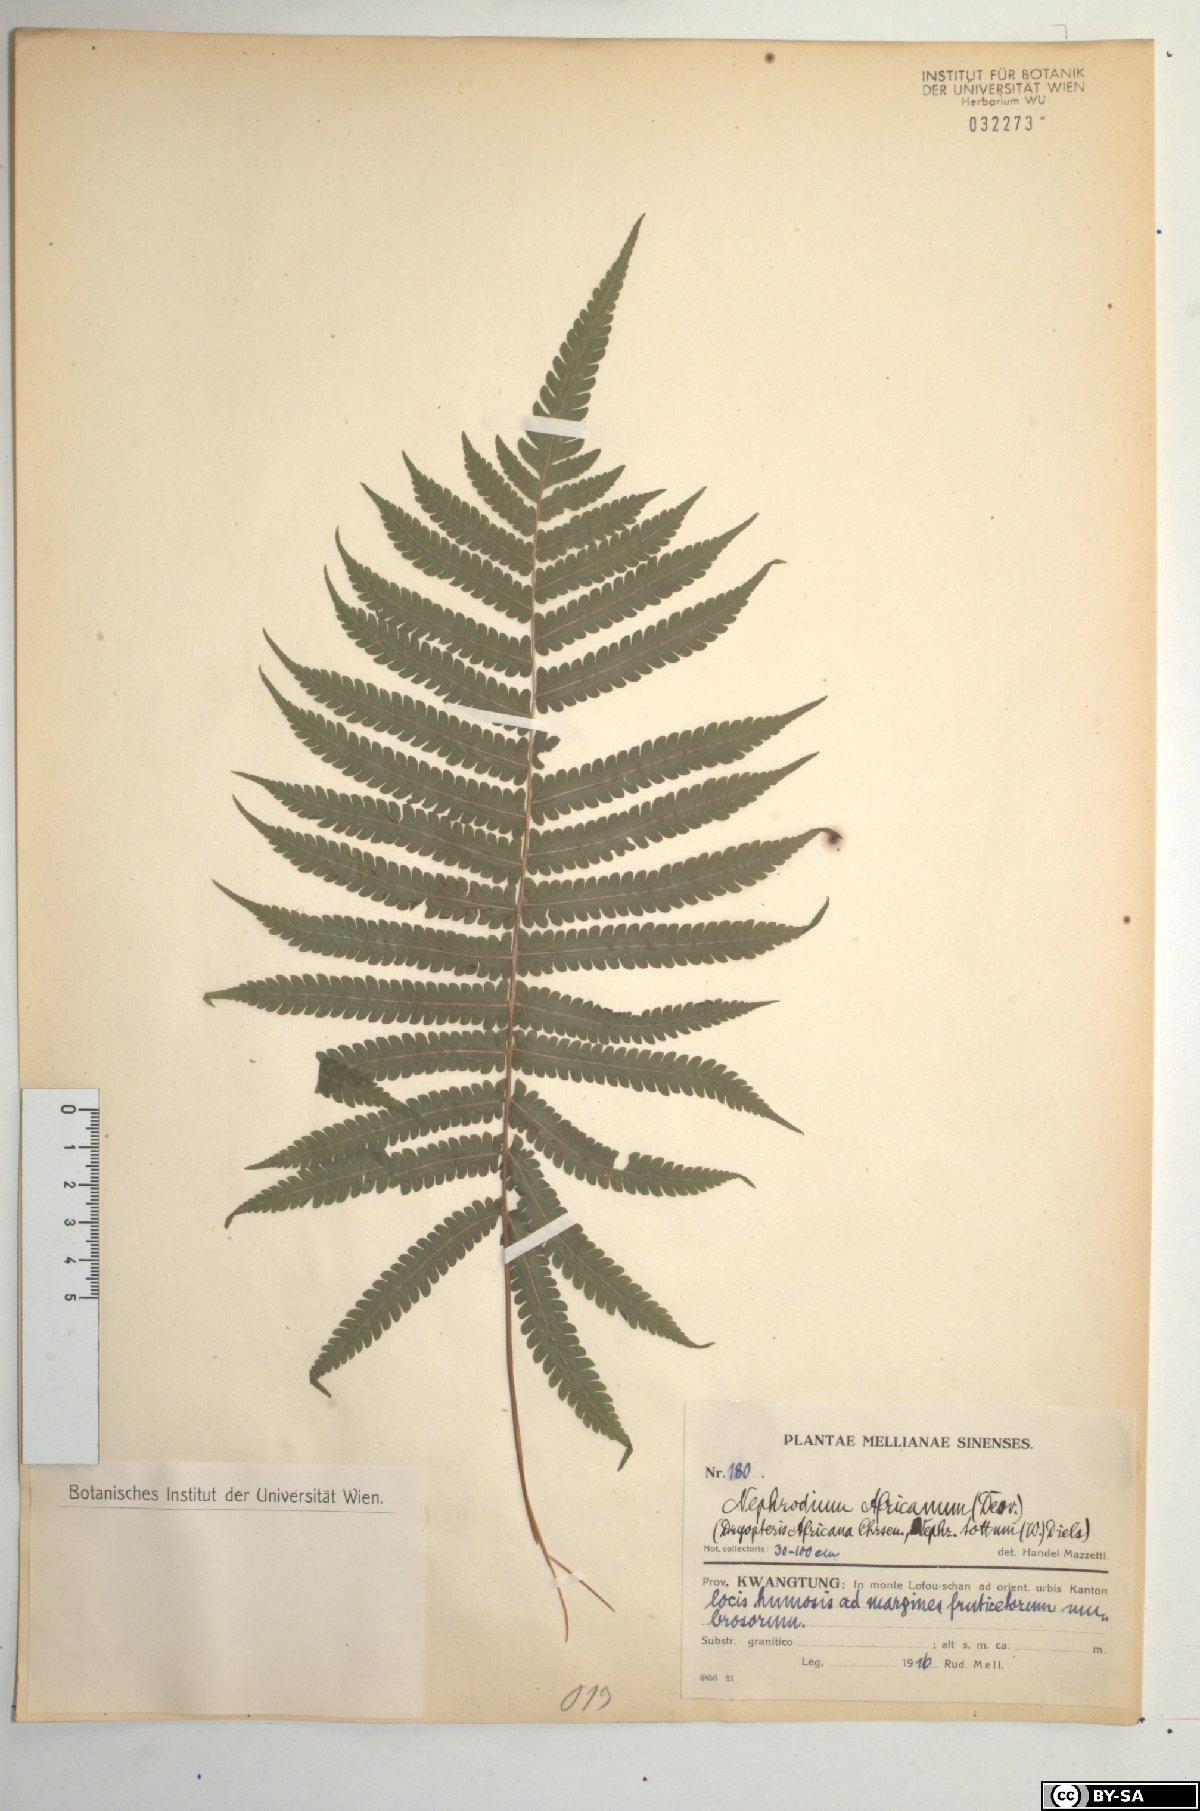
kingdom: Plantae
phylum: Tracheophyta
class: Polypodiopsida
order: Polypodiales
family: Thelypteridaceae
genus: Leptogramma
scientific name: Leptogramma pozoi
